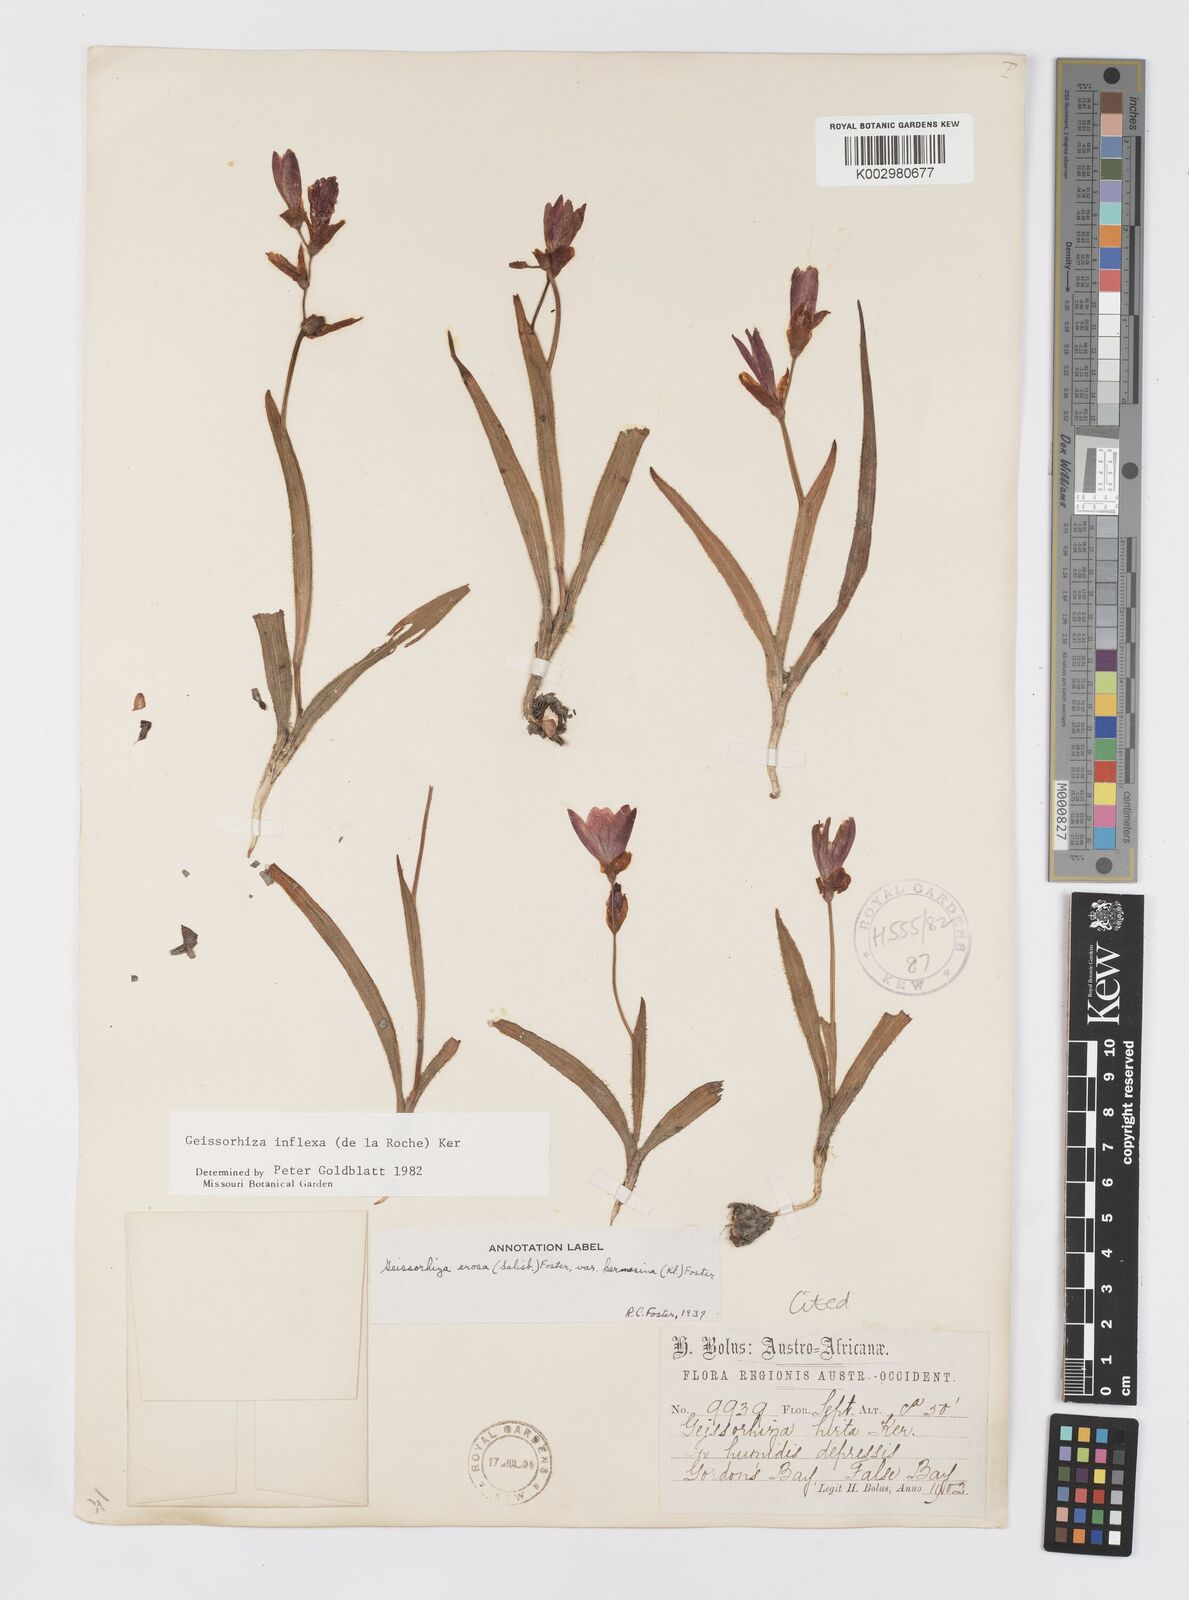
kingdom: Plantae
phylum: Tracheophyta
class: Liliopsida
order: Asparagales
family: Iridaceae
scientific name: Iridaceae
